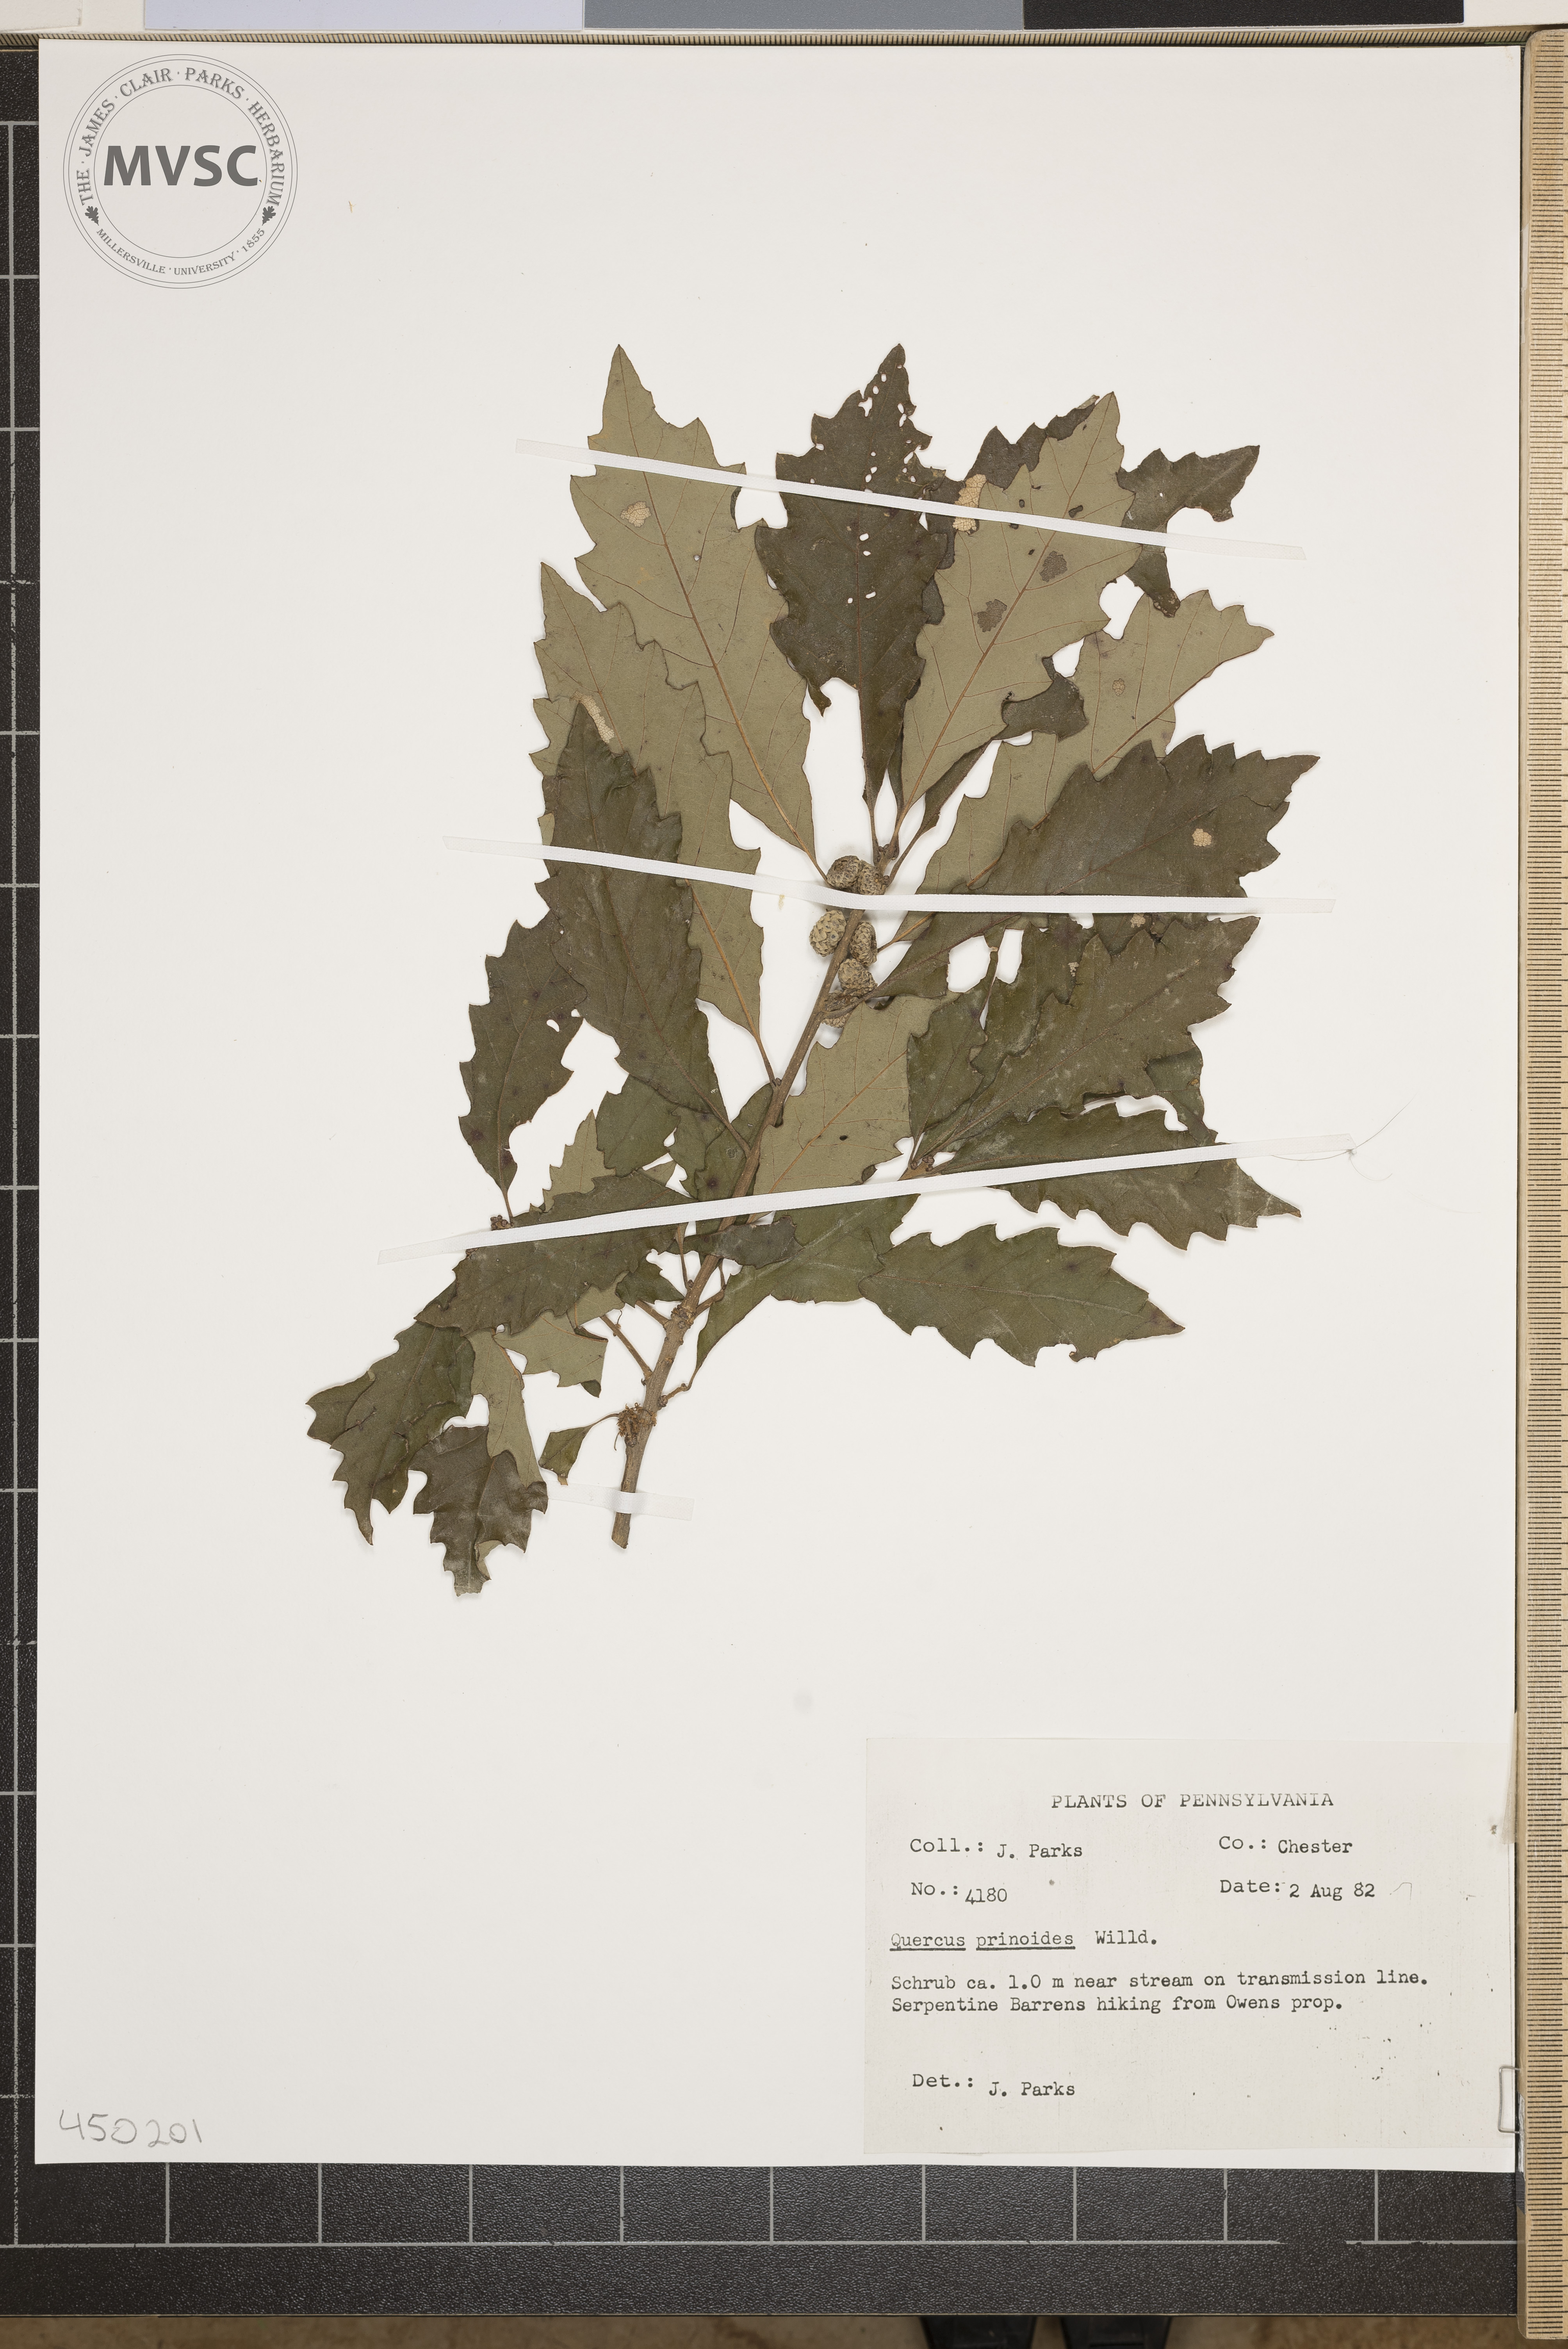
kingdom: Plantae
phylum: Tracheophyta
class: Magnoliopsida
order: Fagales
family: Fagaceae
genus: Quercus
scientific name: Quercus prinoides
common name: Dwarf chinkapin oak
